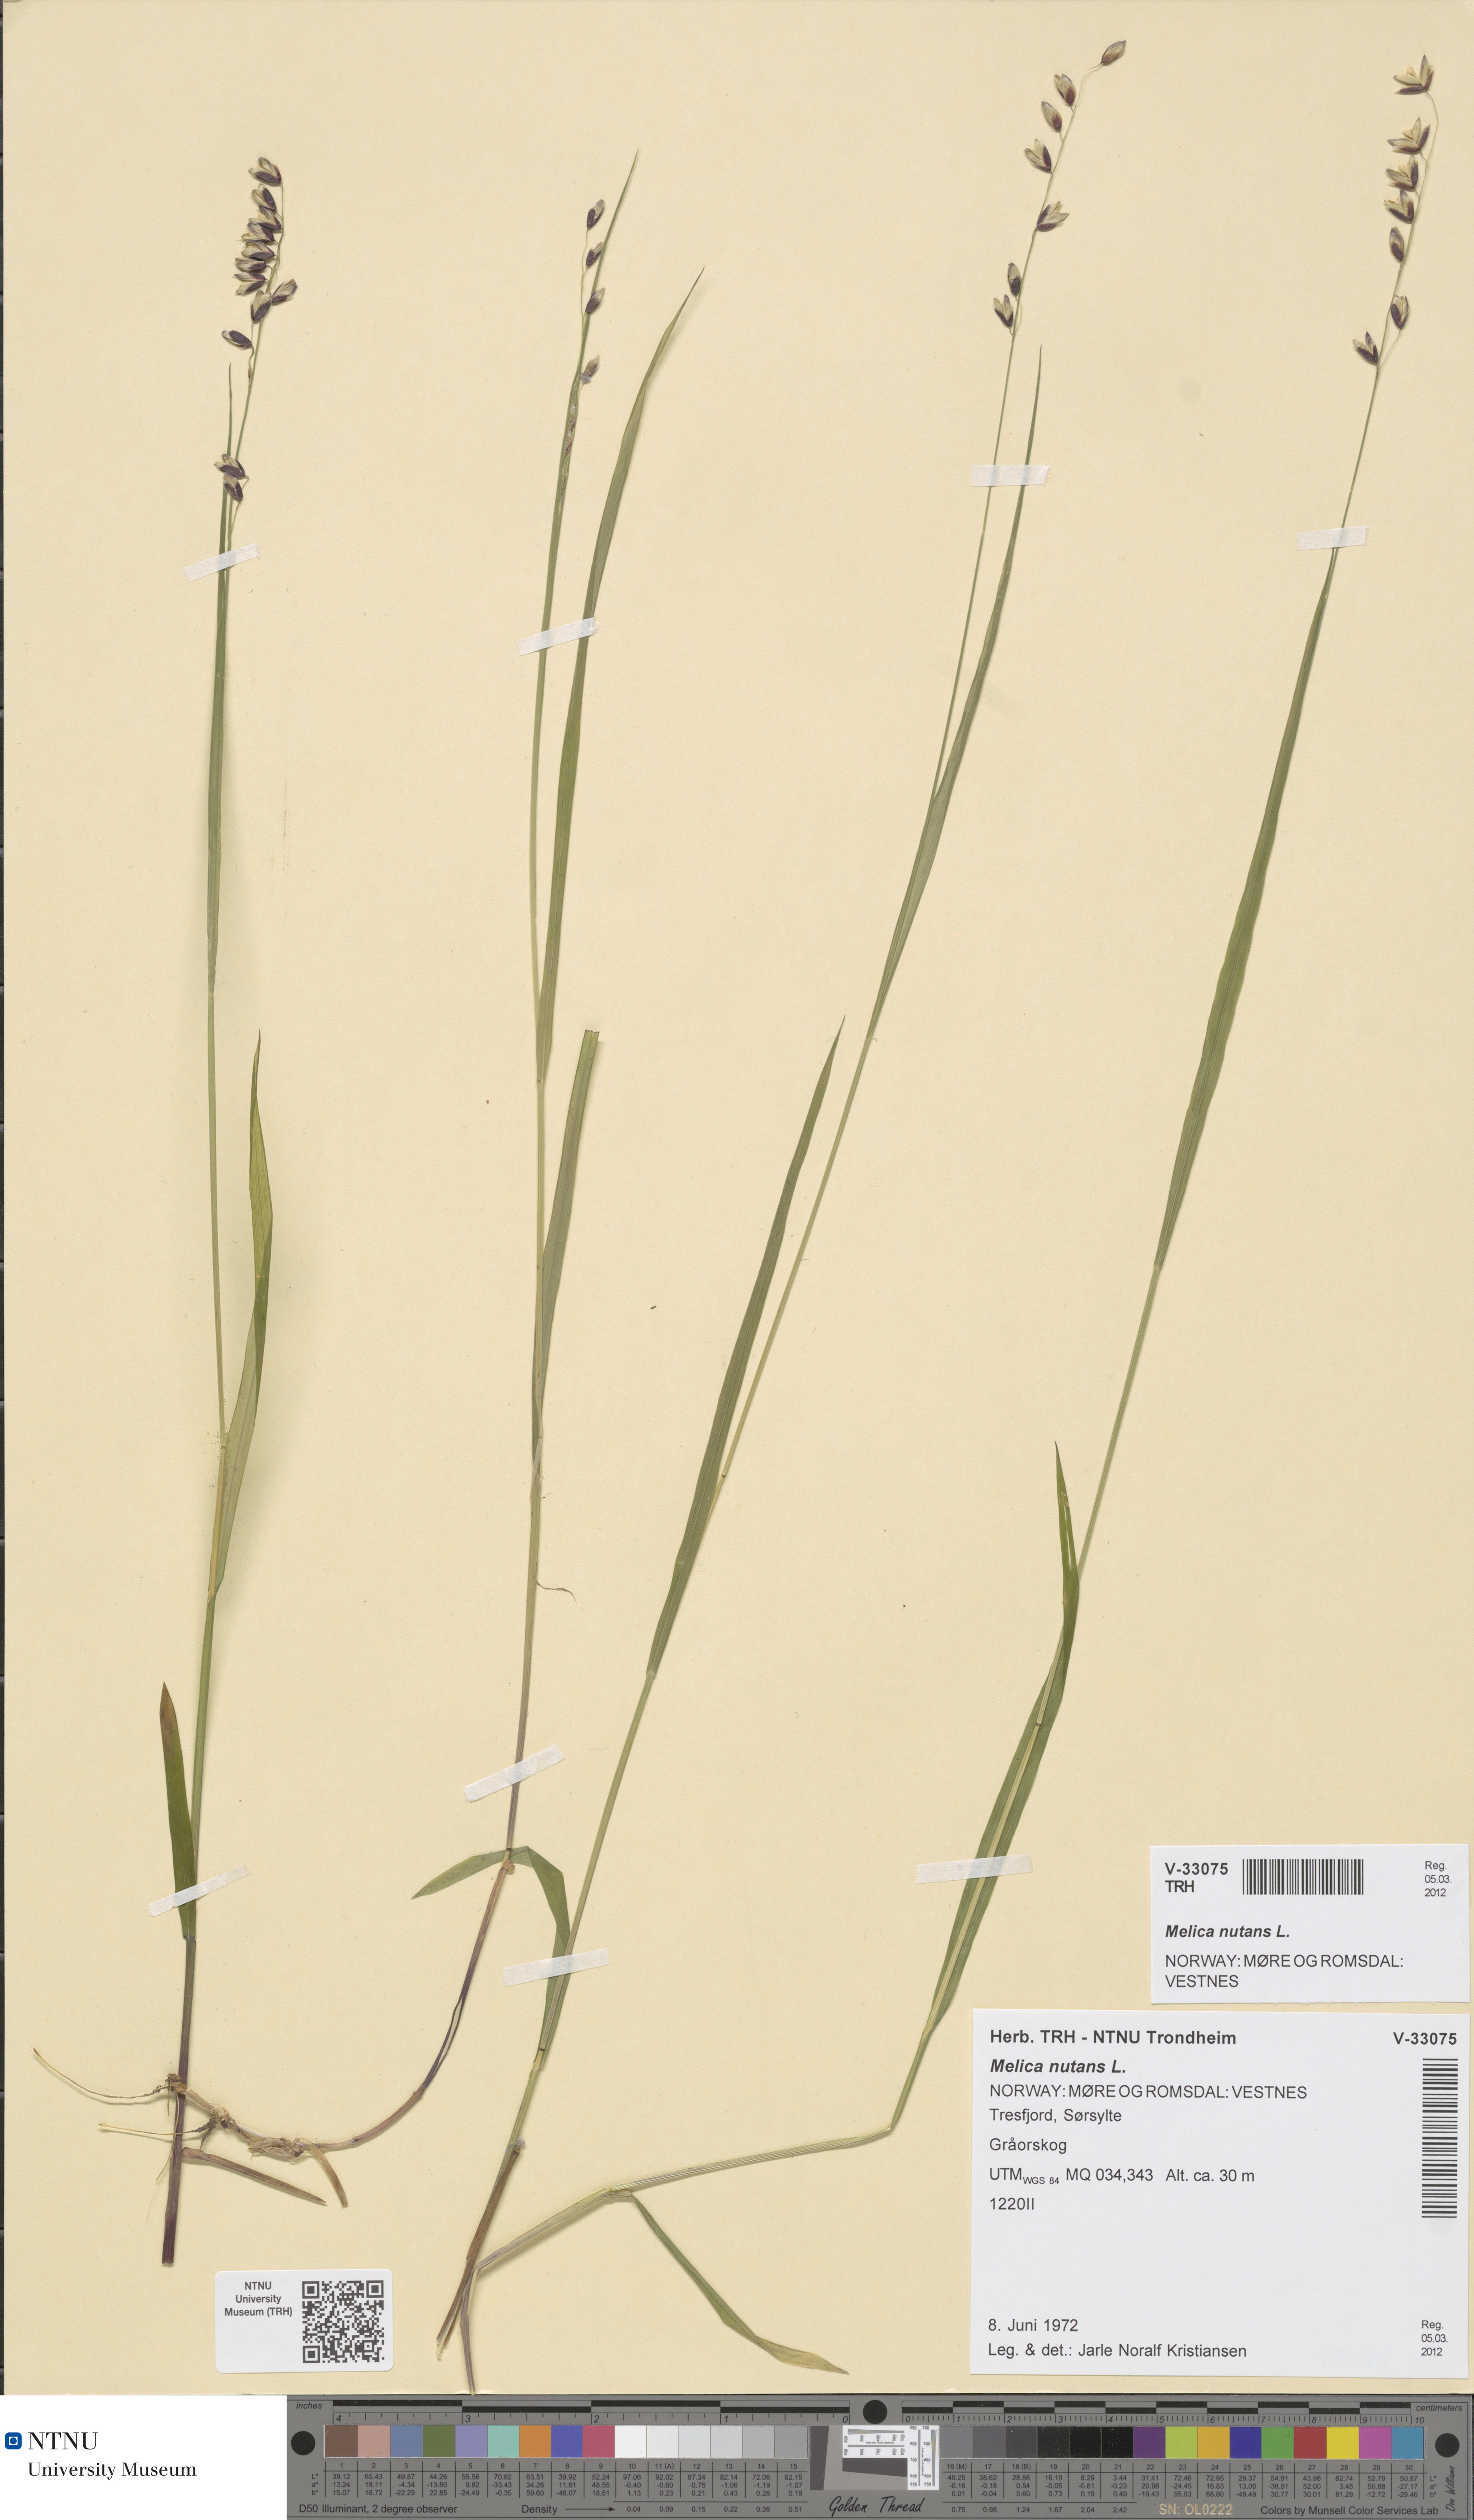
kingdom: Plantae
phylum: Tracheophyta
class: Liliopsida
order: Poales
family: Poaceae
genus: Melica
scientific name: Melica nutans
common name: Mountain melick
